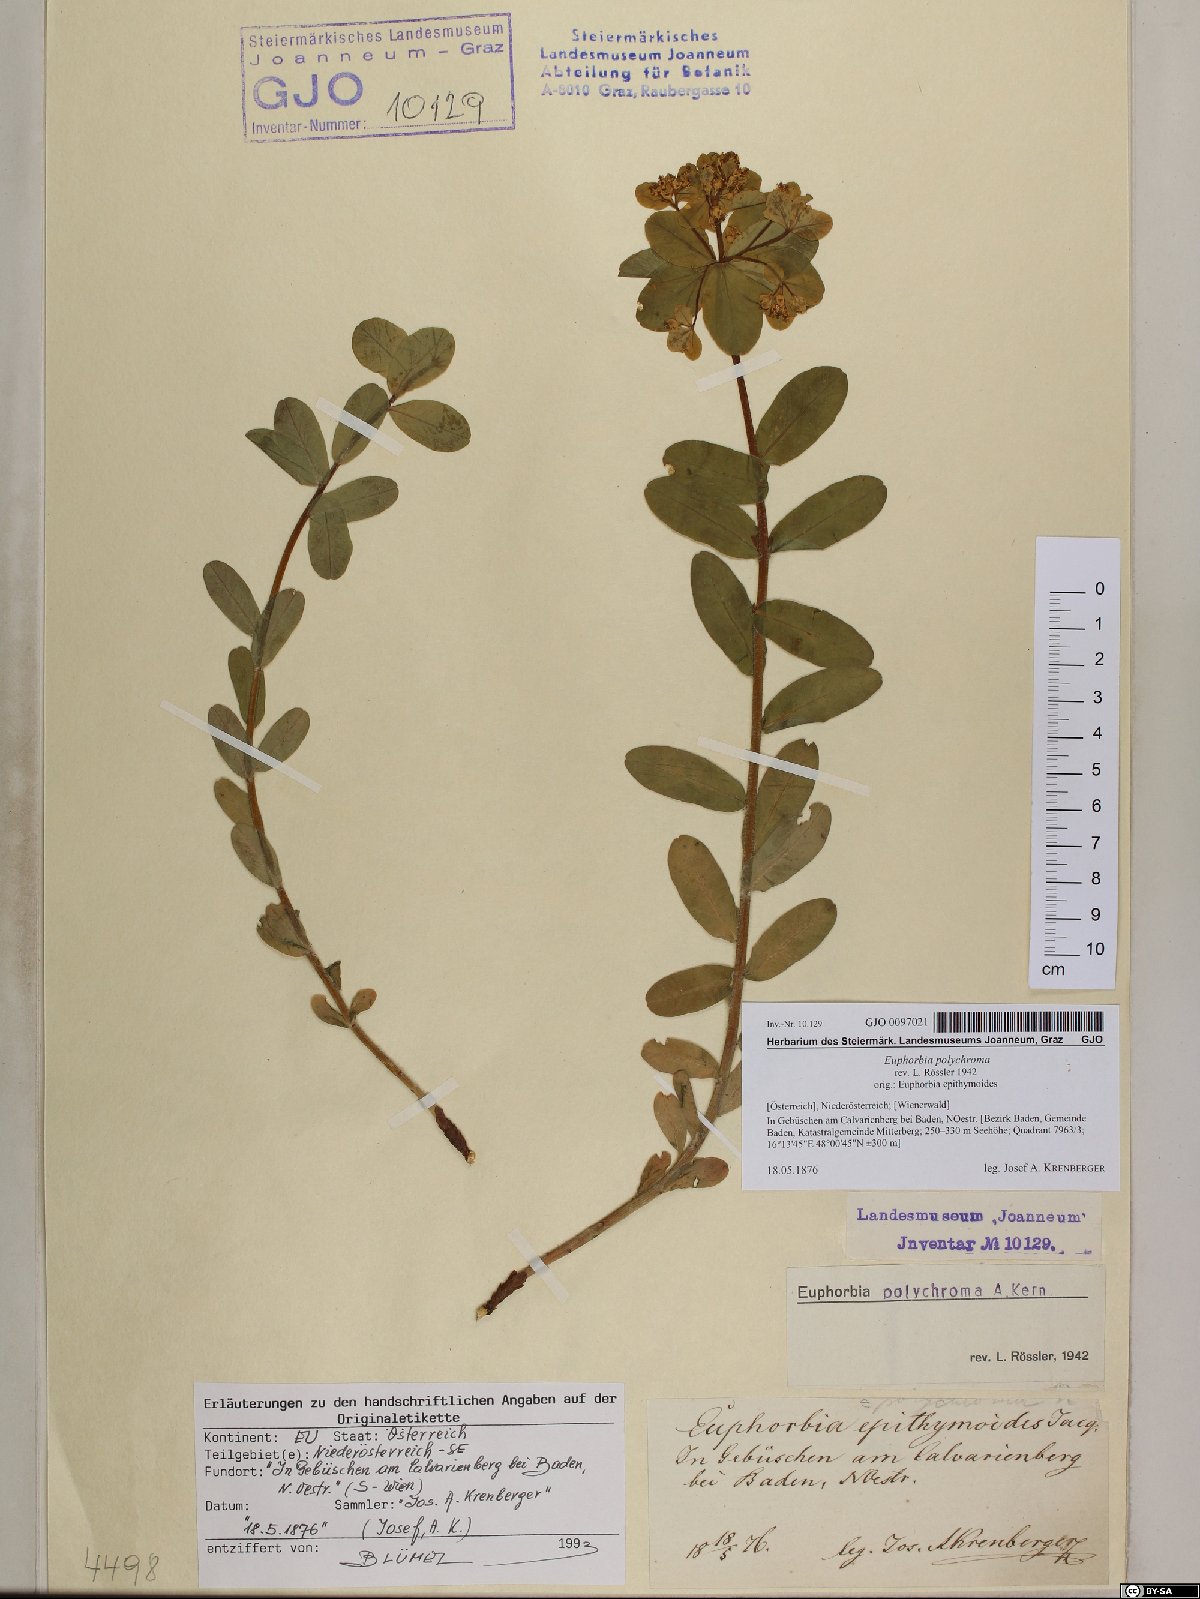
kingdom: Plantae
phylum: Tracheophyta
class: Magnoliopsida
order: Malpighiales
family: Euphorbiaceae
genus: Euphorbia
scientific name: Euphorbia epithymoides
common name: Cushion spurge
